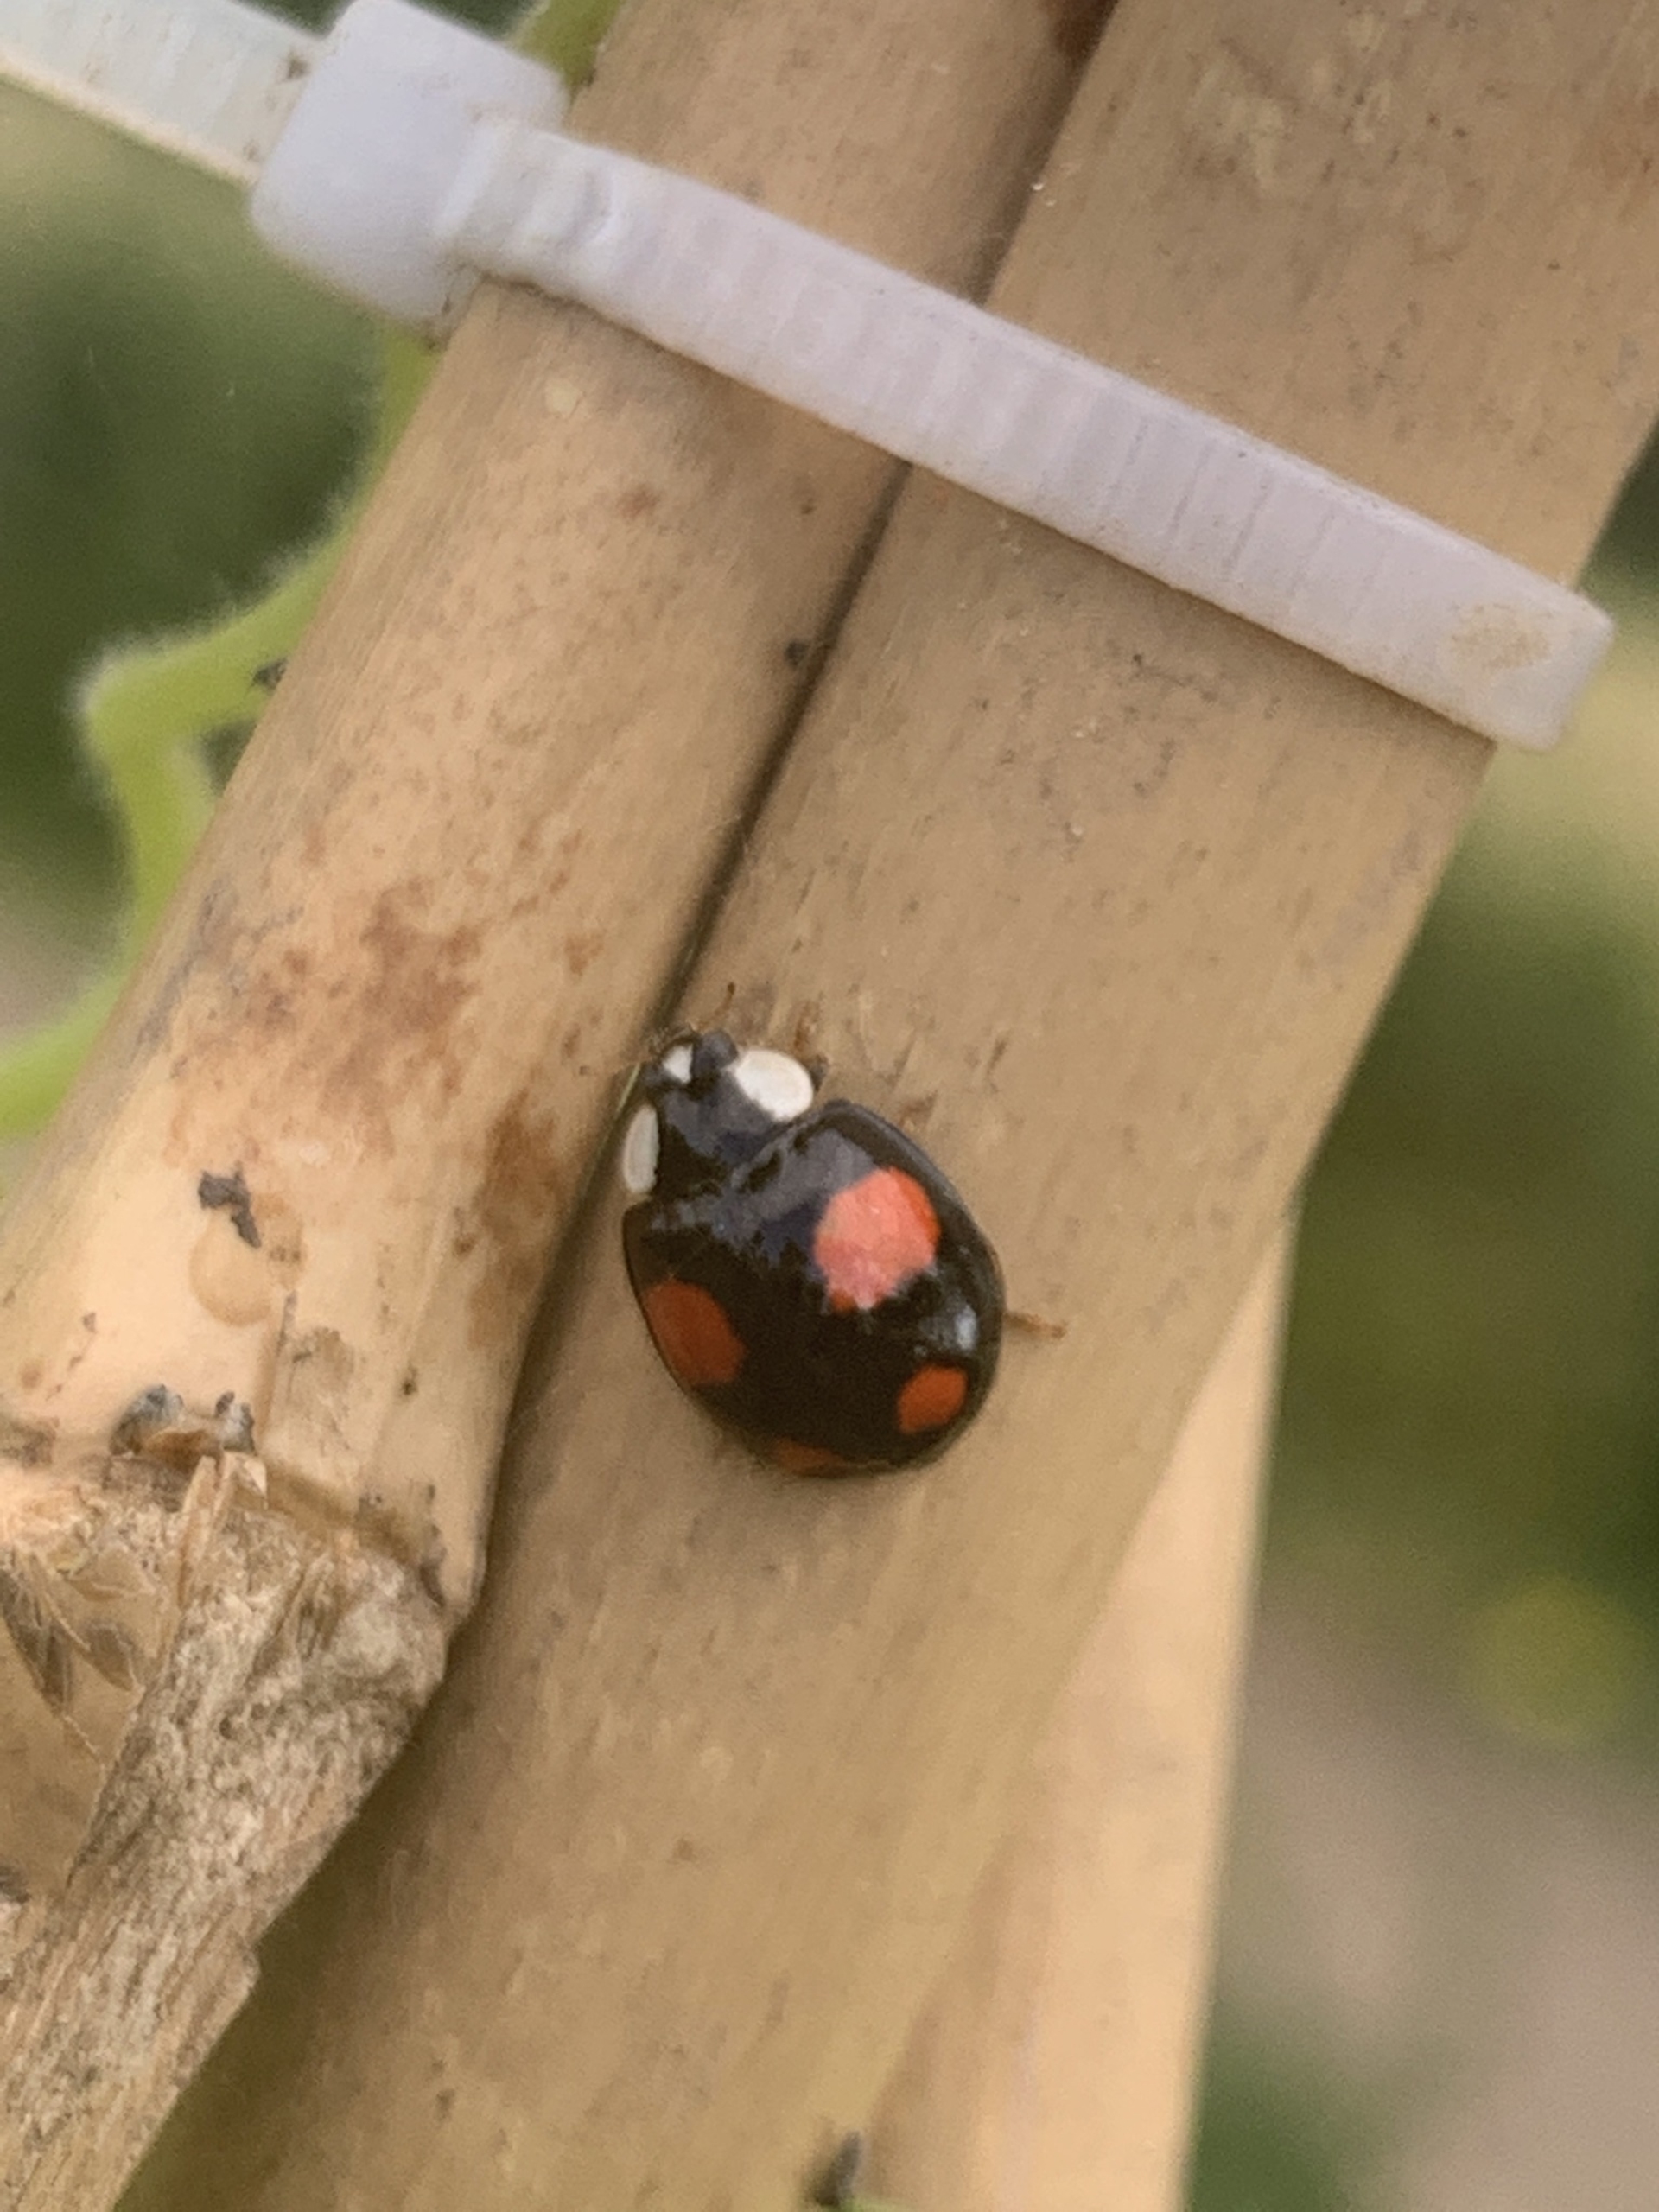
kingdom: Animalia
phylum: Arthropoda
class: Insecta
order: Coleoptera
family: Coccinellidae
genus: Harmonia
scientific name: Harmonia axyridis
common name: Harlekinmariehøne
